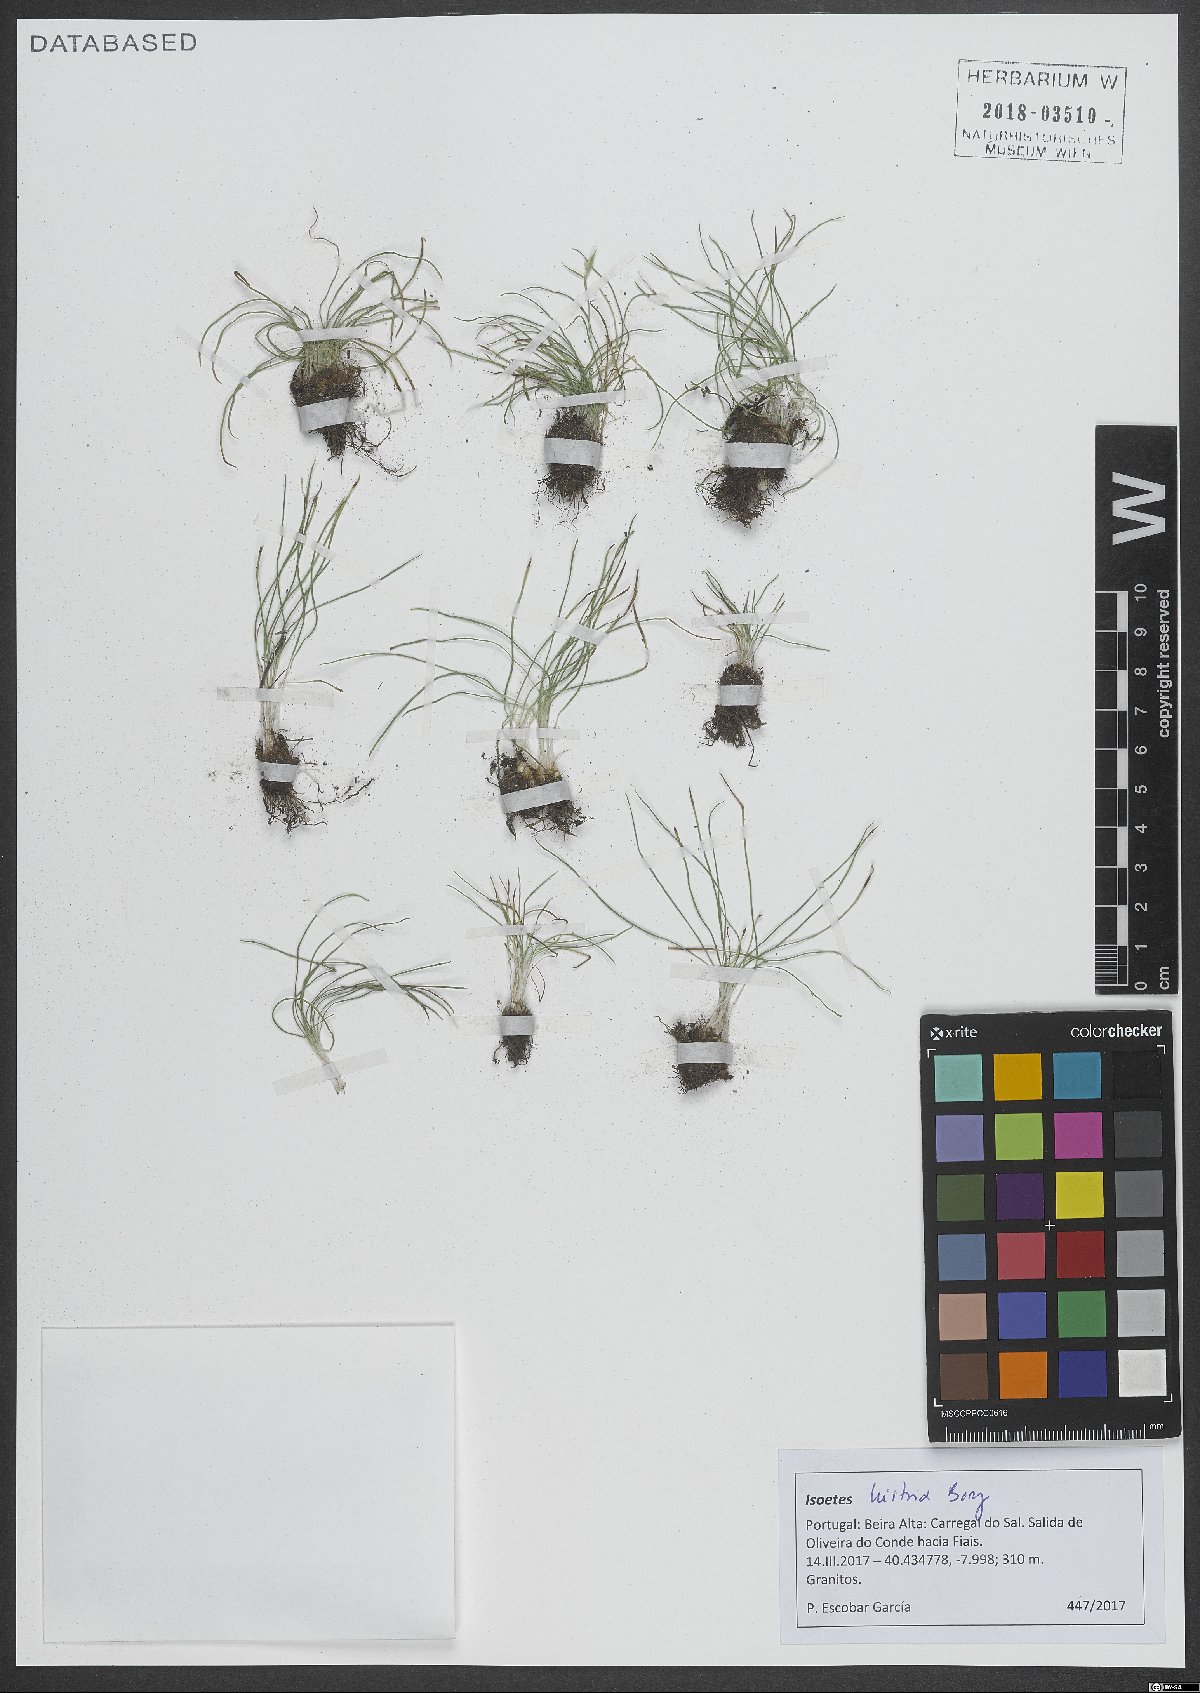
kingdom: Plantae
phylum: Tracheophyta
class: Lycopodiopsida
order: Isoetales
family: Isoetaceae
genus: Isoetes
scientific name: Isoetes histrix
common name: Land quillwort
